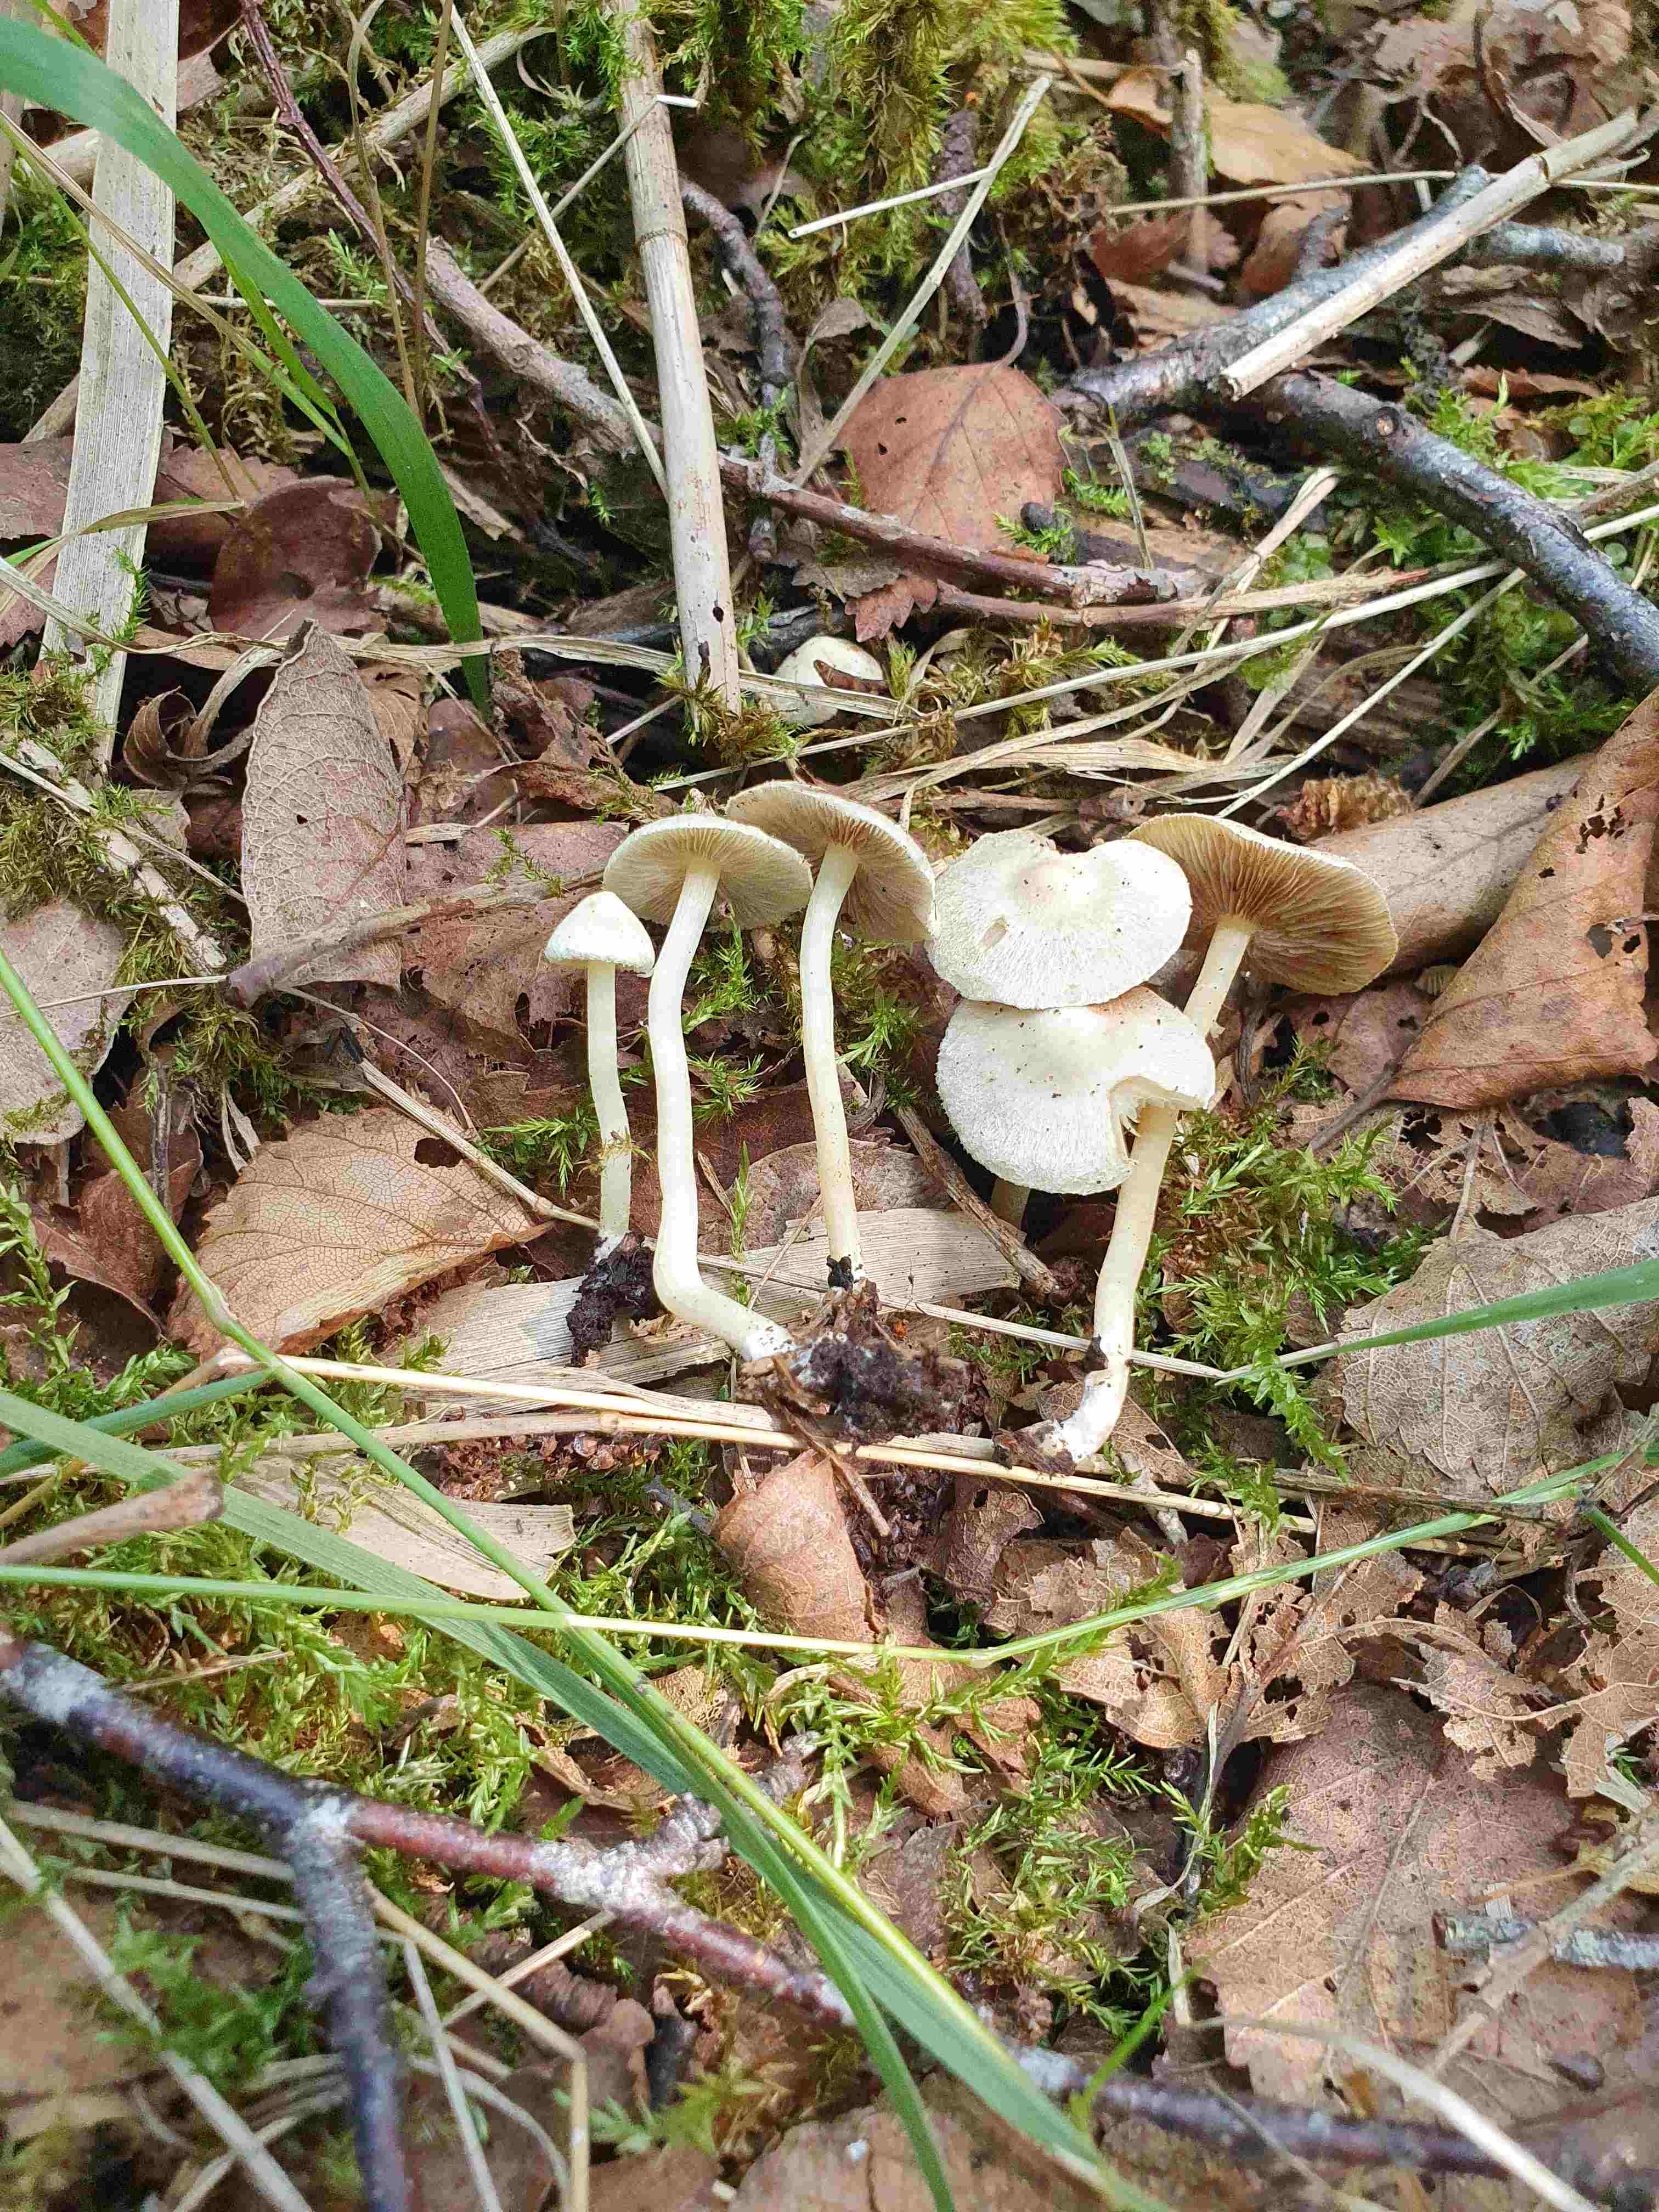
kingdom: Fungi
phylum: Basidiomycota
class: Agaricomycetes
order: Agaricales
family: Inocybaceae
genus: Inocybe
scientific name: Inocybe paludinella
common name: mose-trævlhat
